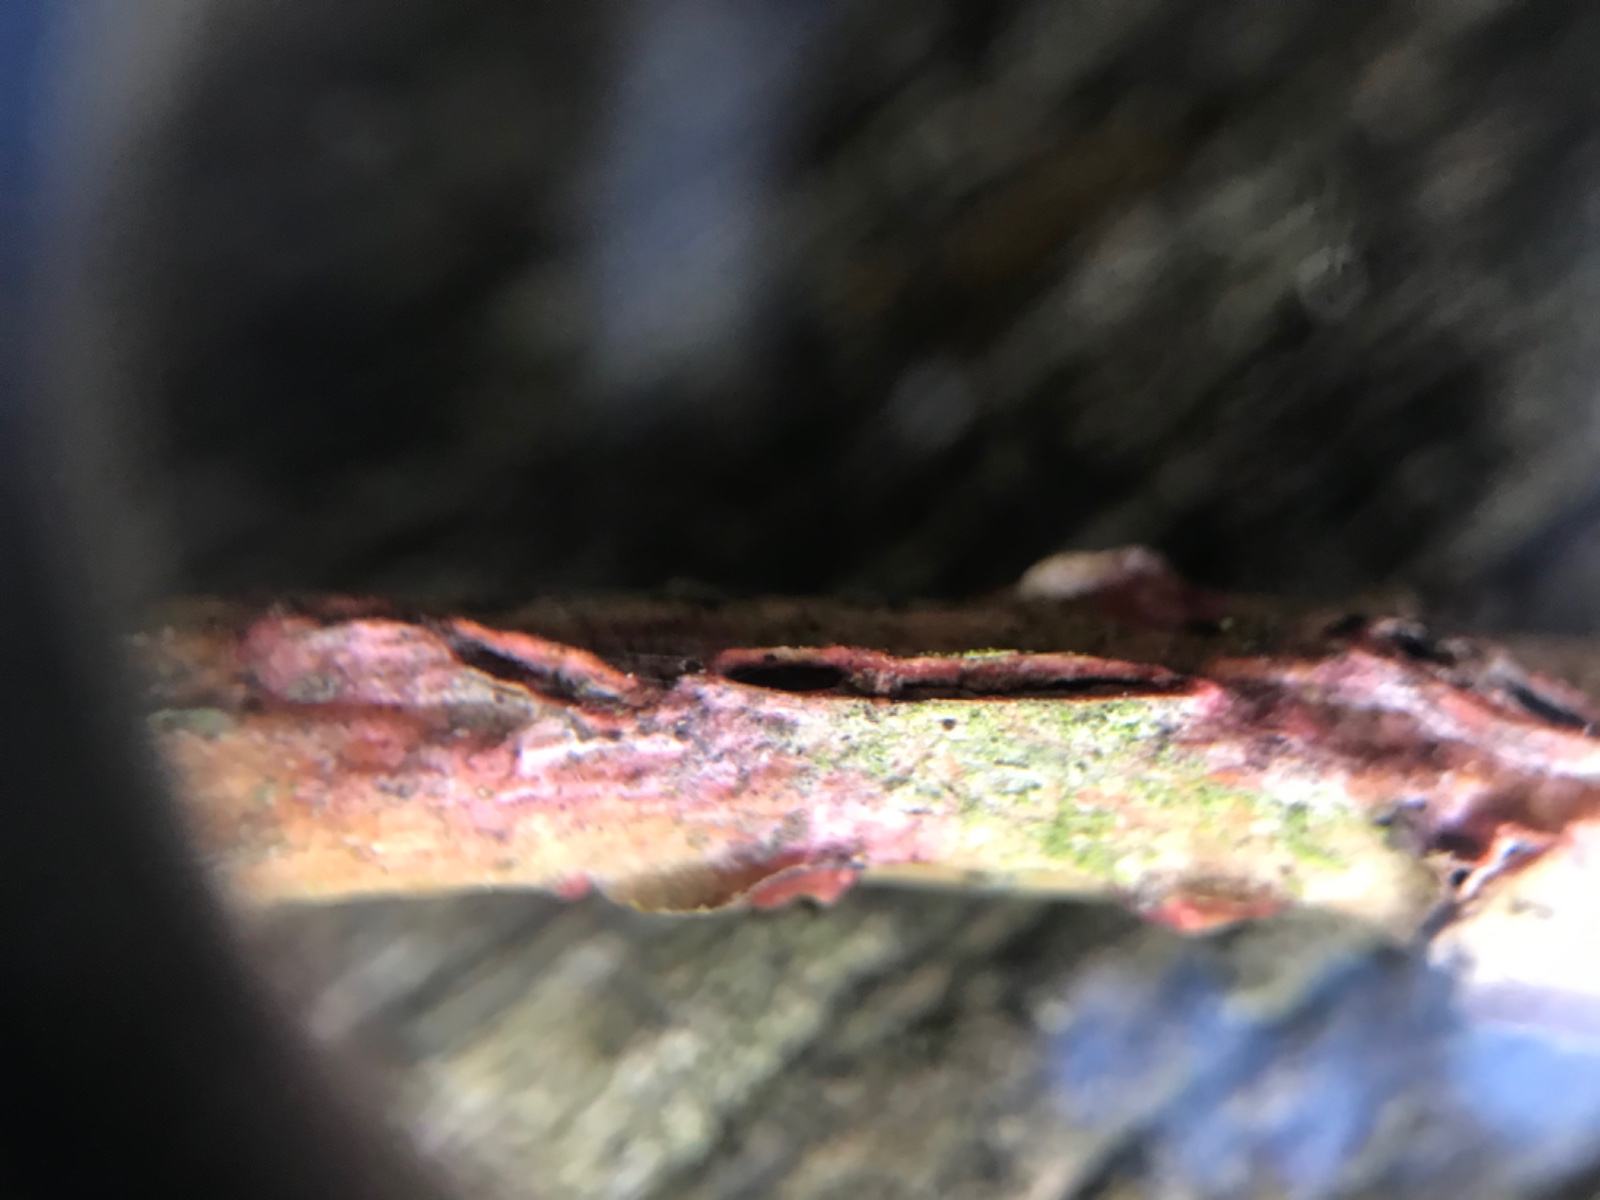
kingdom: Fungi
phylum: Basidiomycota
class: Agaricomycetes
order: Corticiales
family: Corticiaceae
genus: Marchandiomyces
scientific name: Marchandiomyces aurantioroseus
